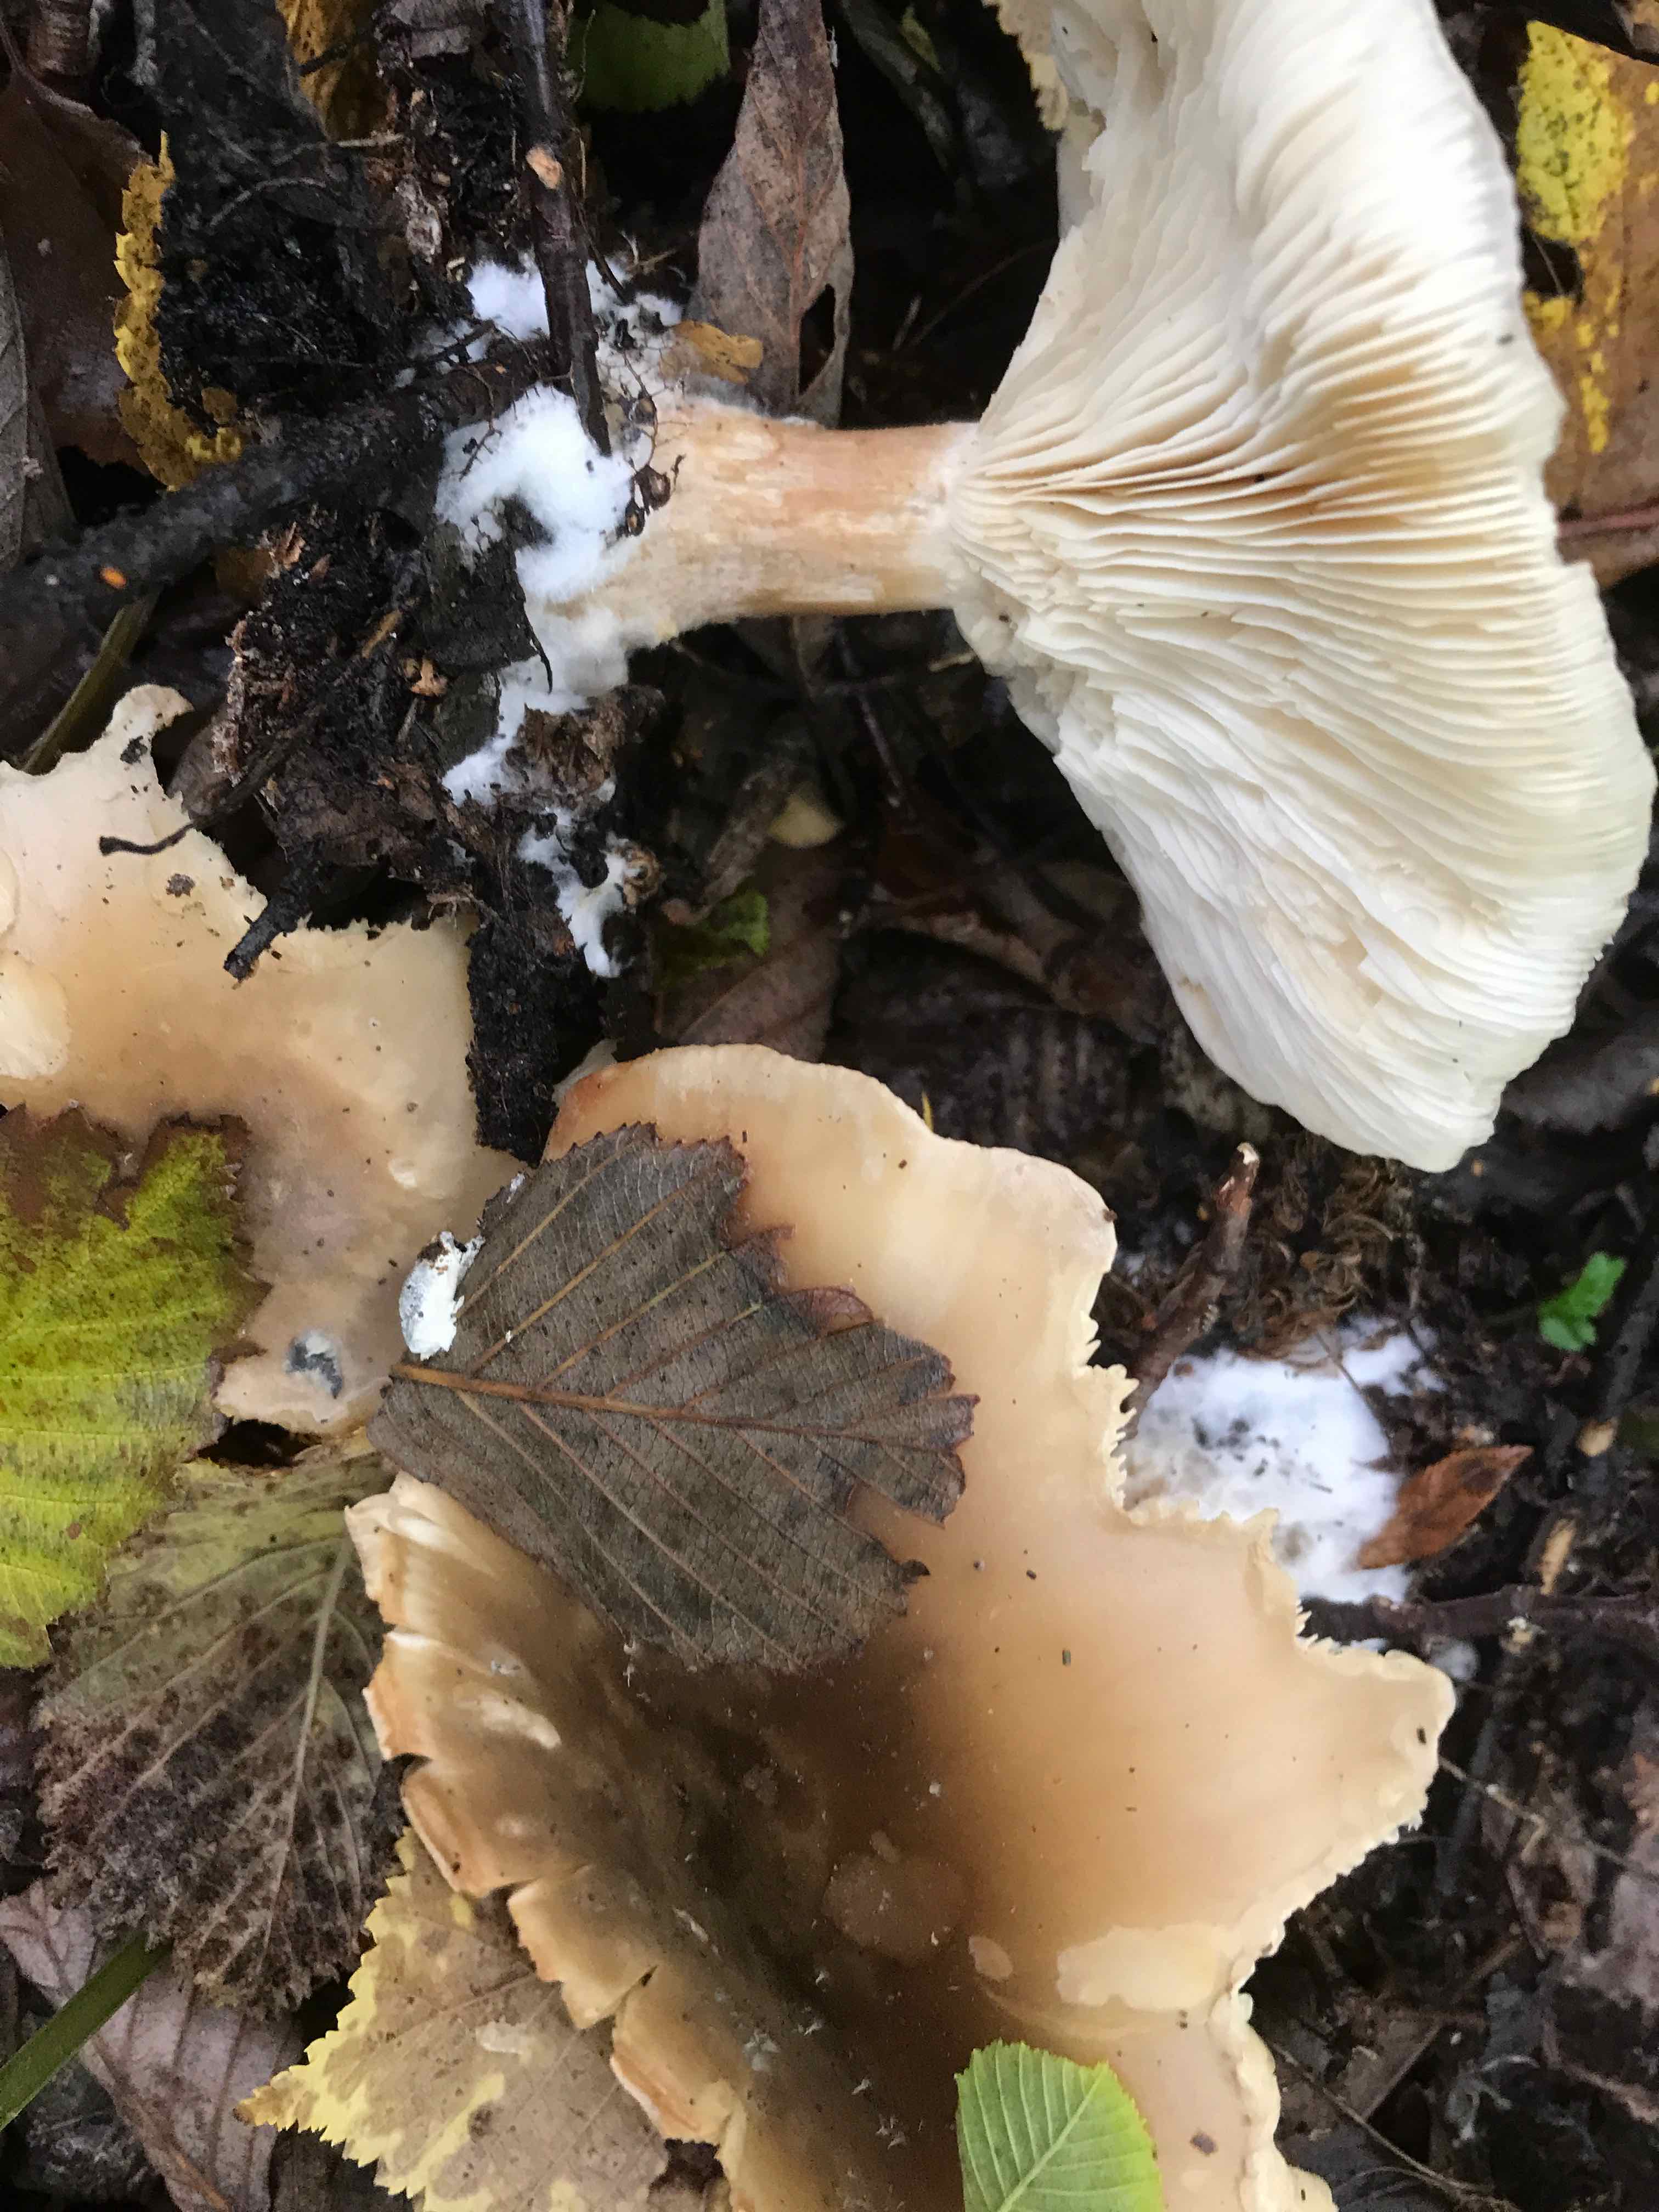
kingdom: Fungi
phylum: Basidiomycota
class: Agaricomycetes
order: Agaricales
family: Tricholomataceae
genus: Clitocybe
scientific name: Clitocybe nebularis
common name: tåge-tragthat
